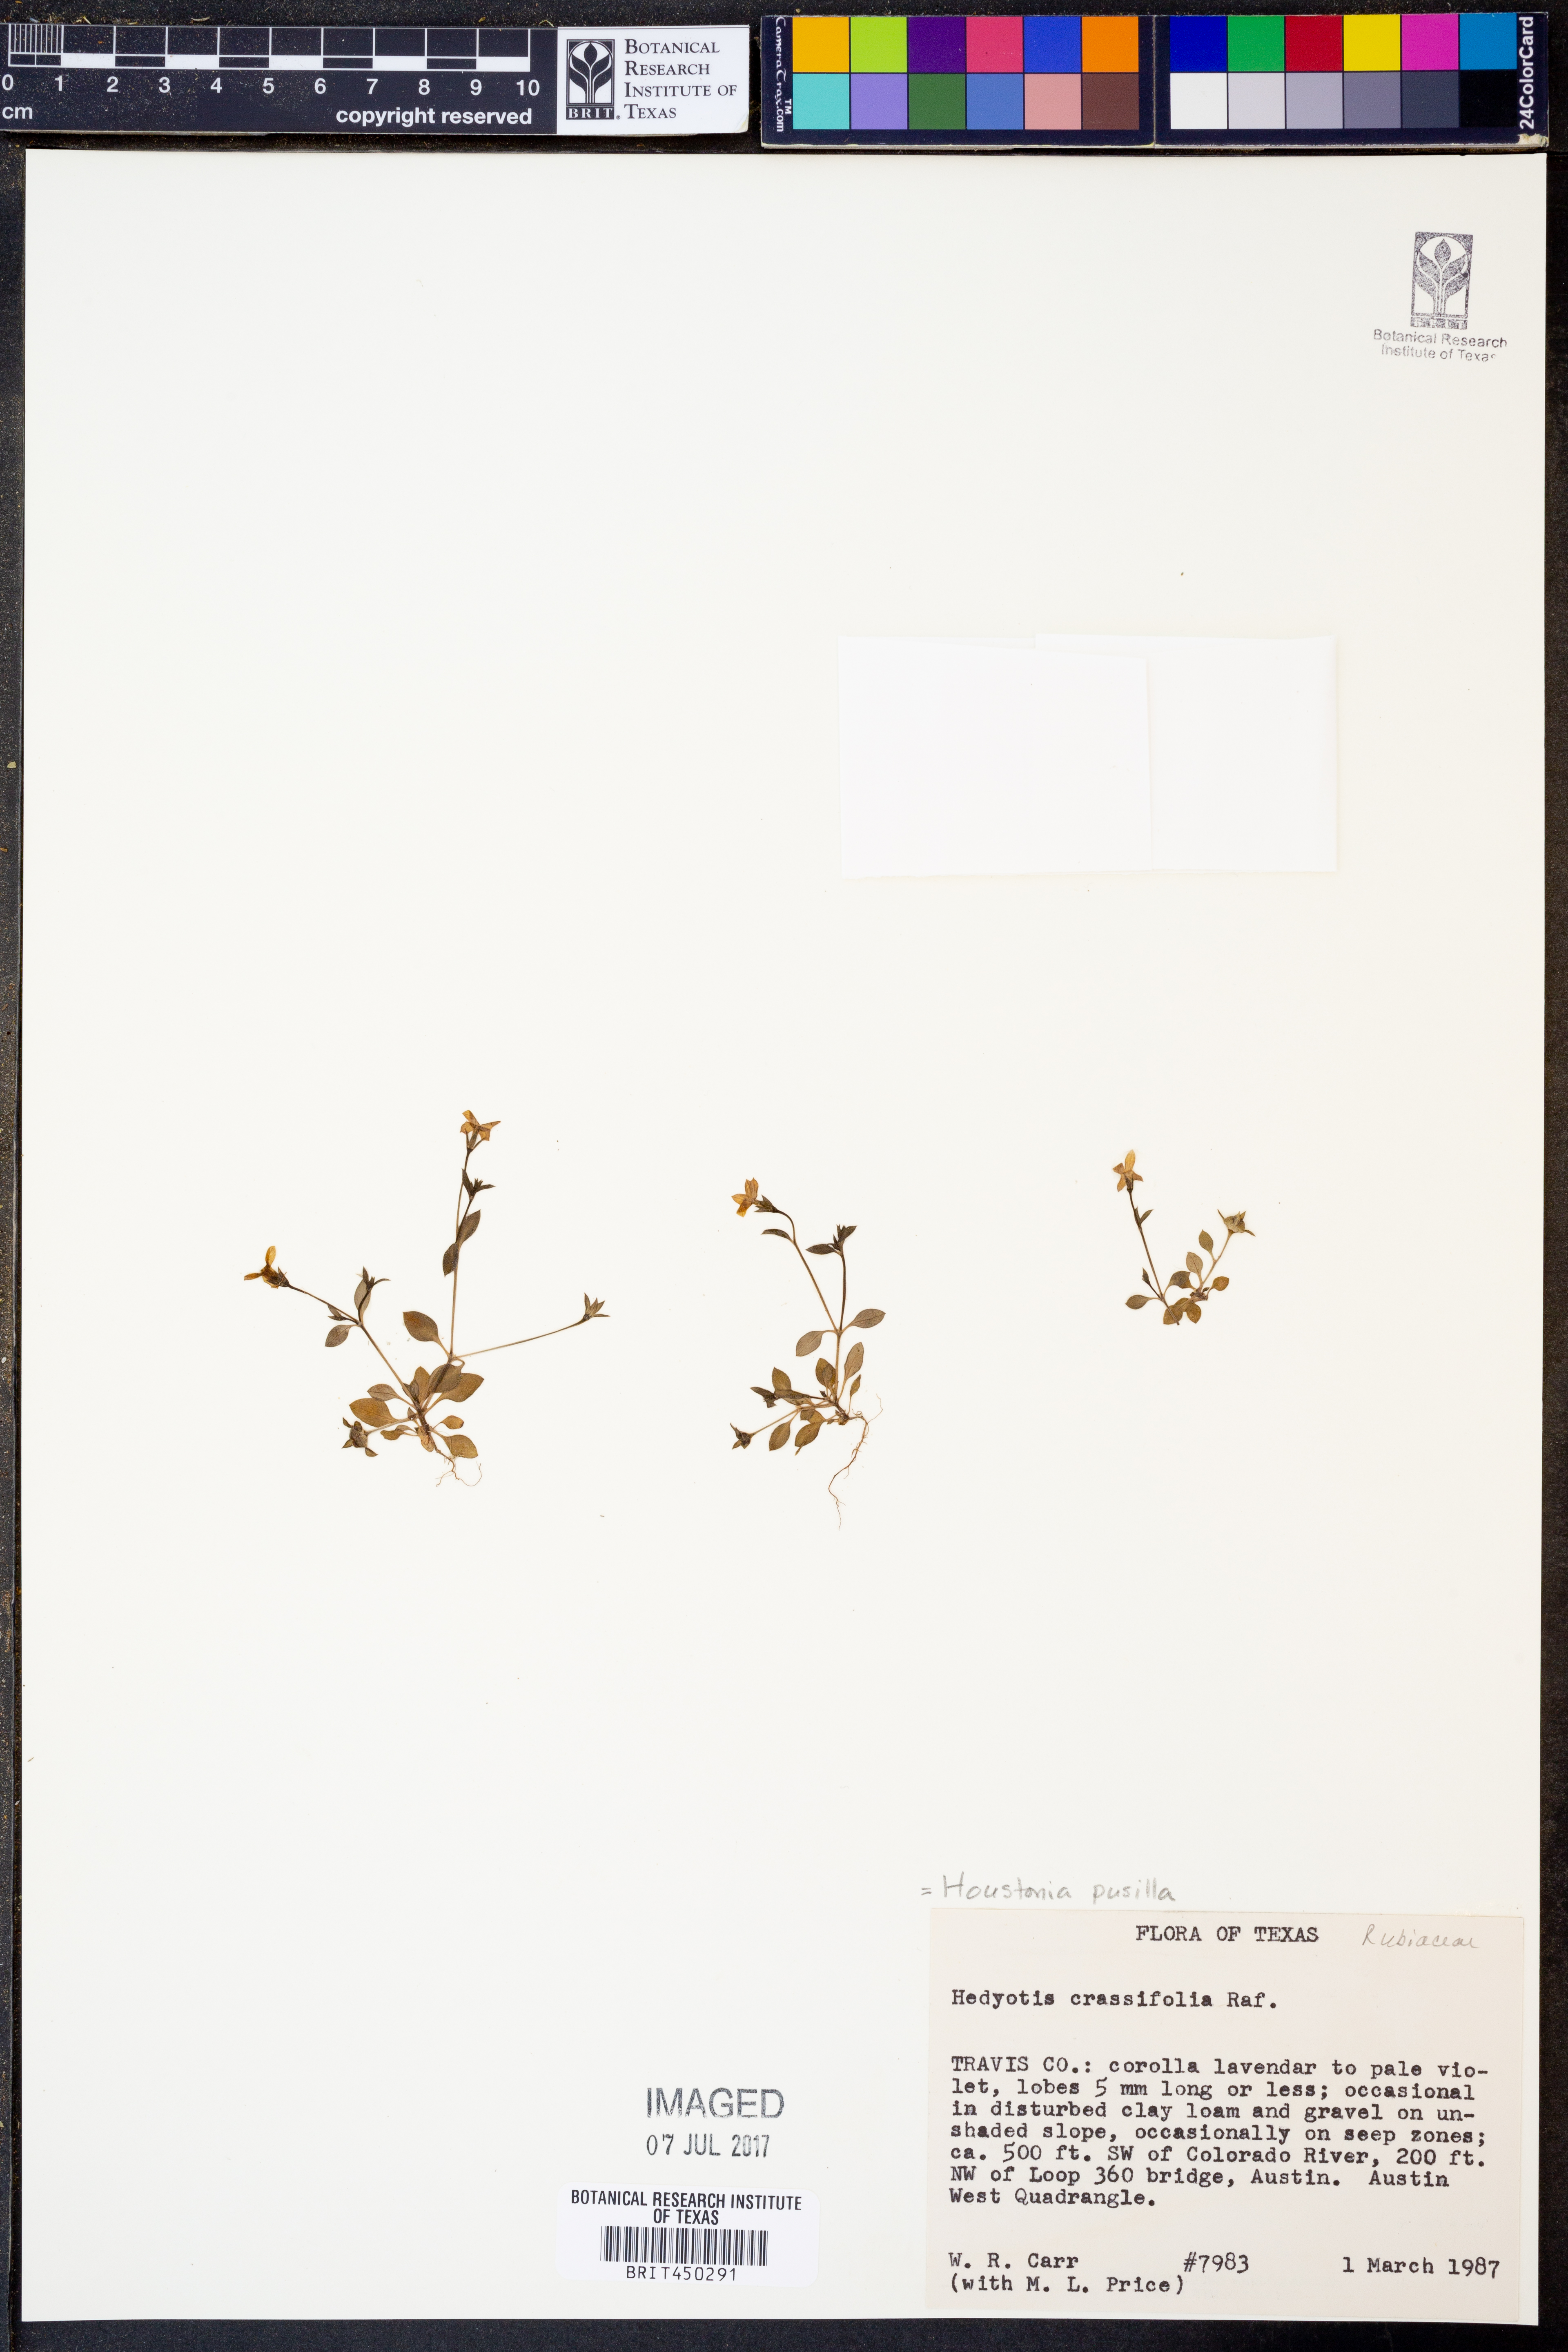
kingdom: Plantae
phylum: Tracheophyta
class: Magnoliopsida
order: Gentianales
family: Rubiaceae
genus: Houstonia
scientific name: Houstonia pusilla
